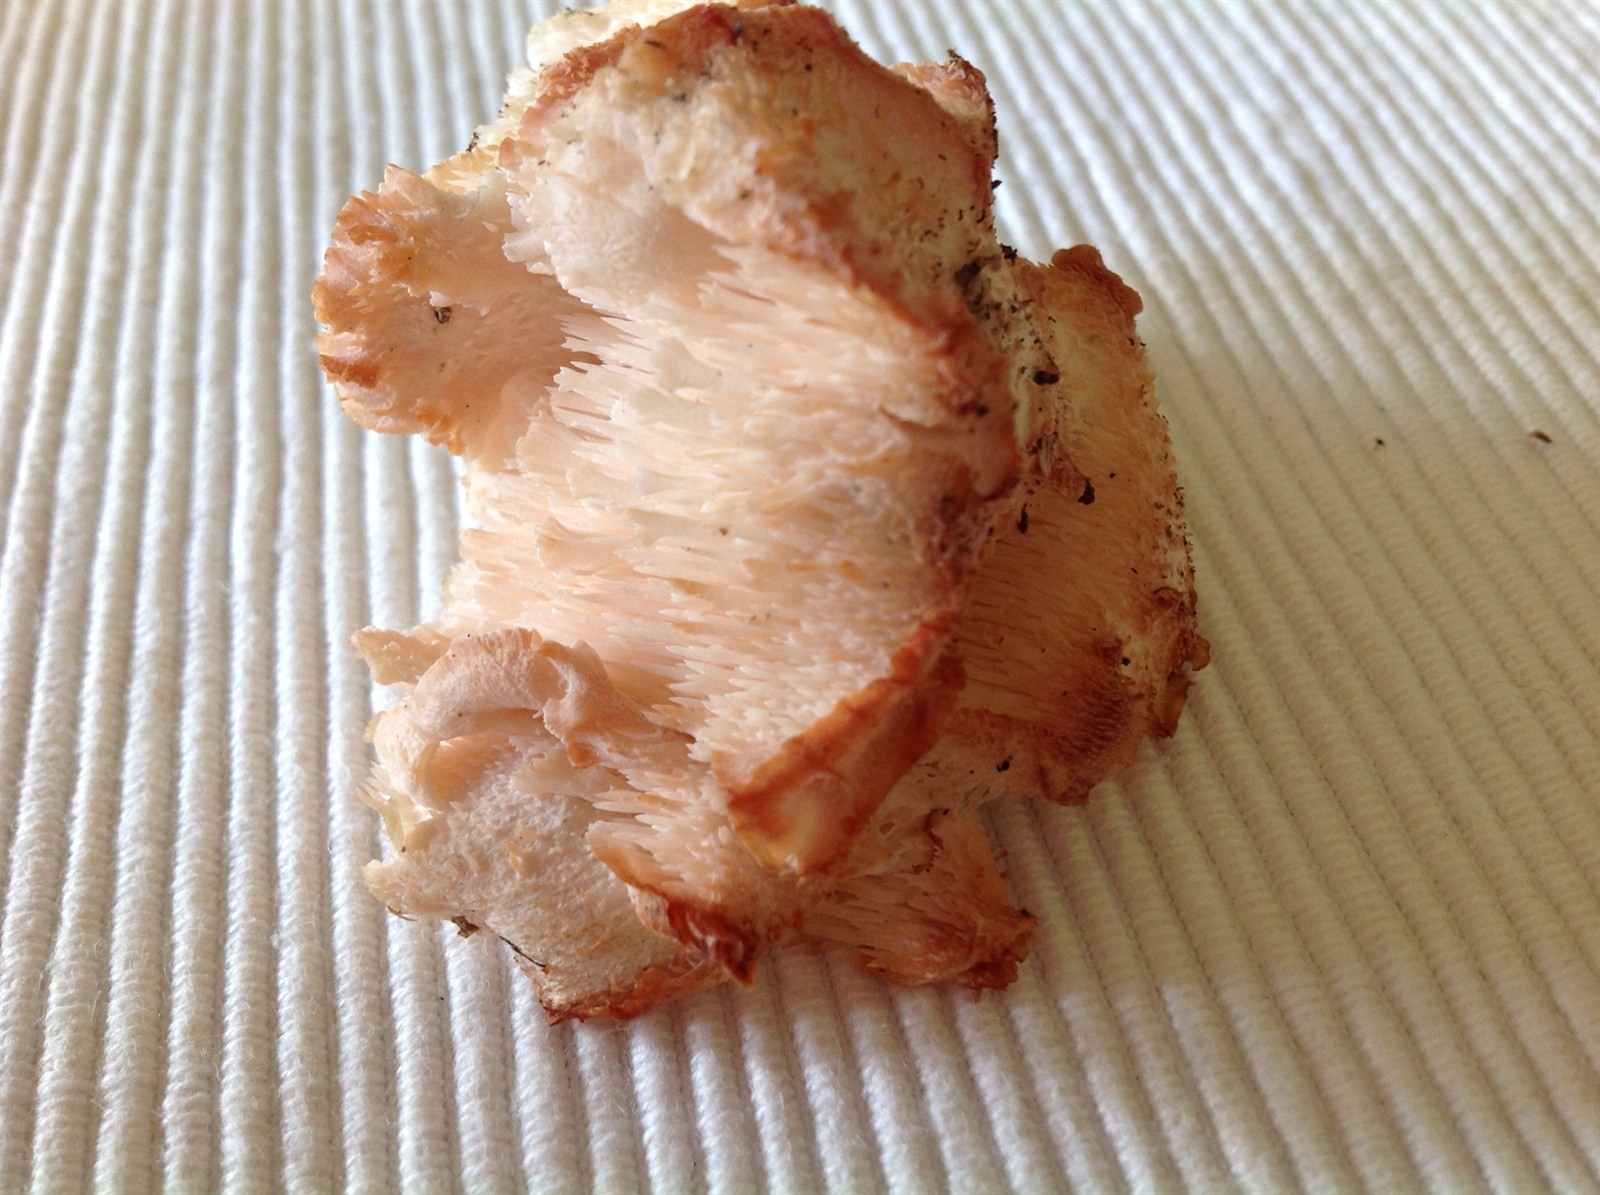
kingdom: Fungi
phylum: Basidiomycota
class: Agaricomycetes
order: Russulales
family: Hericiaceae
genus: Hericium
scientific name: Hericium cirrhatum
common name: Tiered tooth
